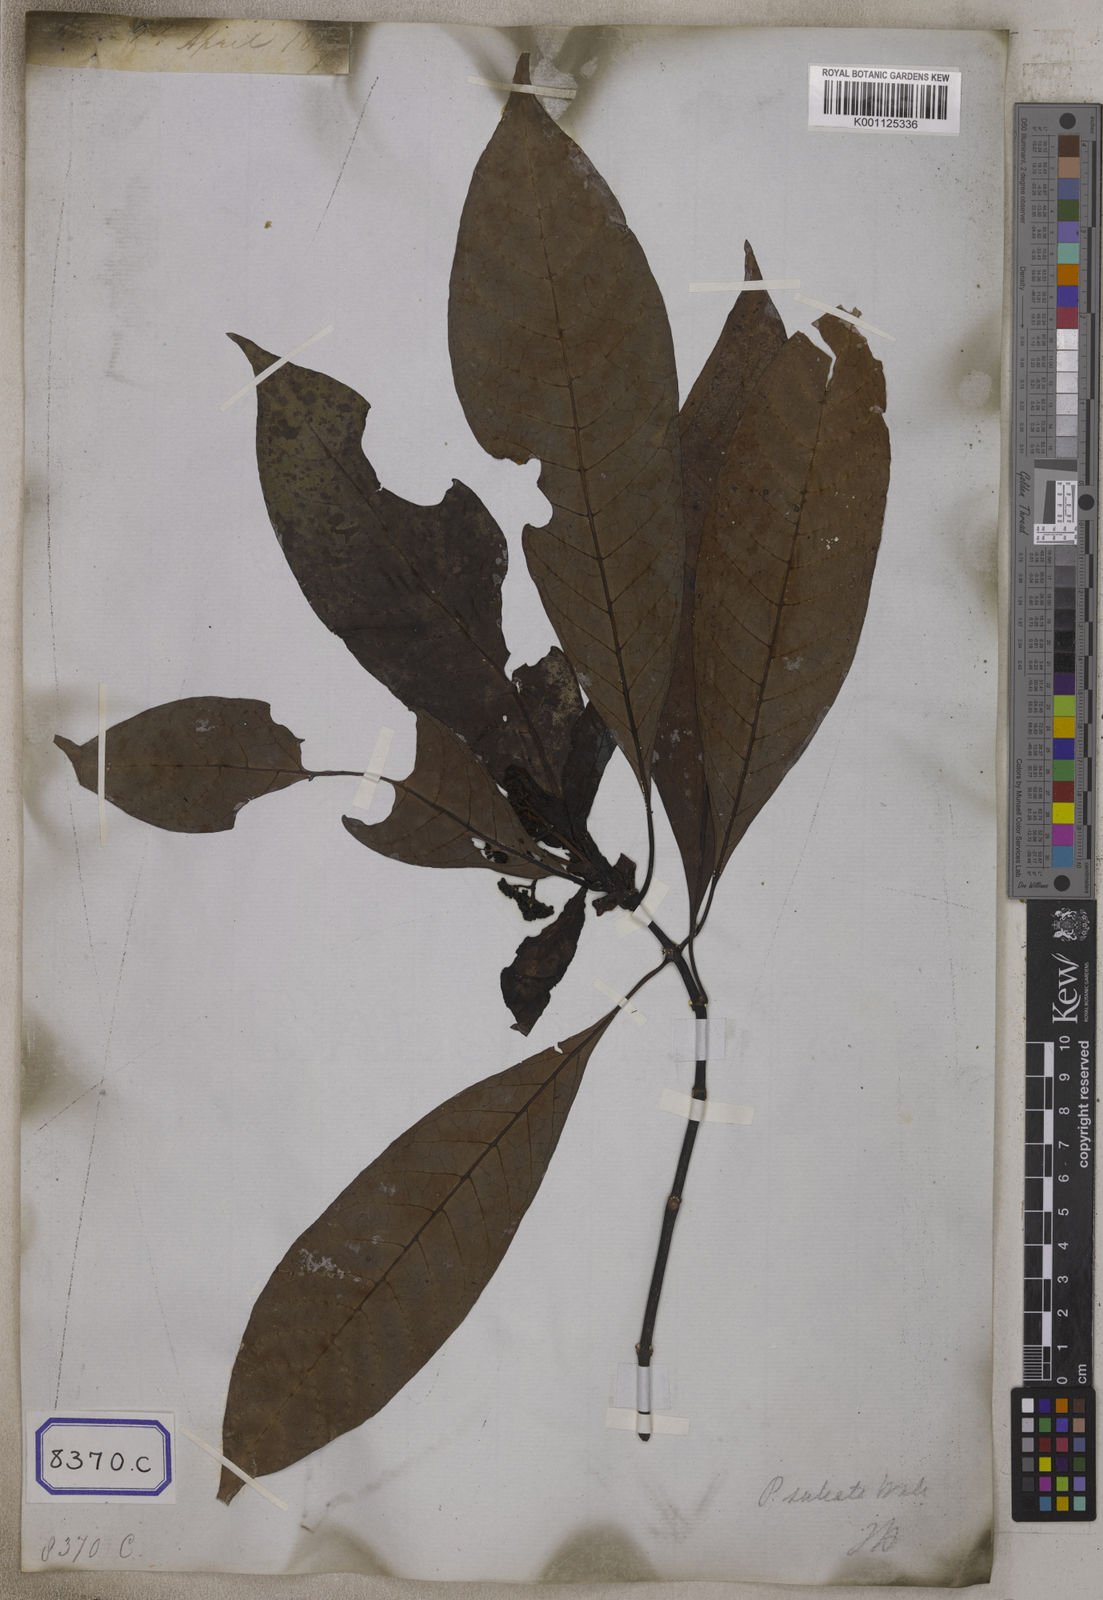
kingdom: Plantae
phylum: Tracheophyta
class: Magnoliopsida
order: Gentianales
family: Rubiaceae
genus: Psychotria
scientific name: Psychotria
